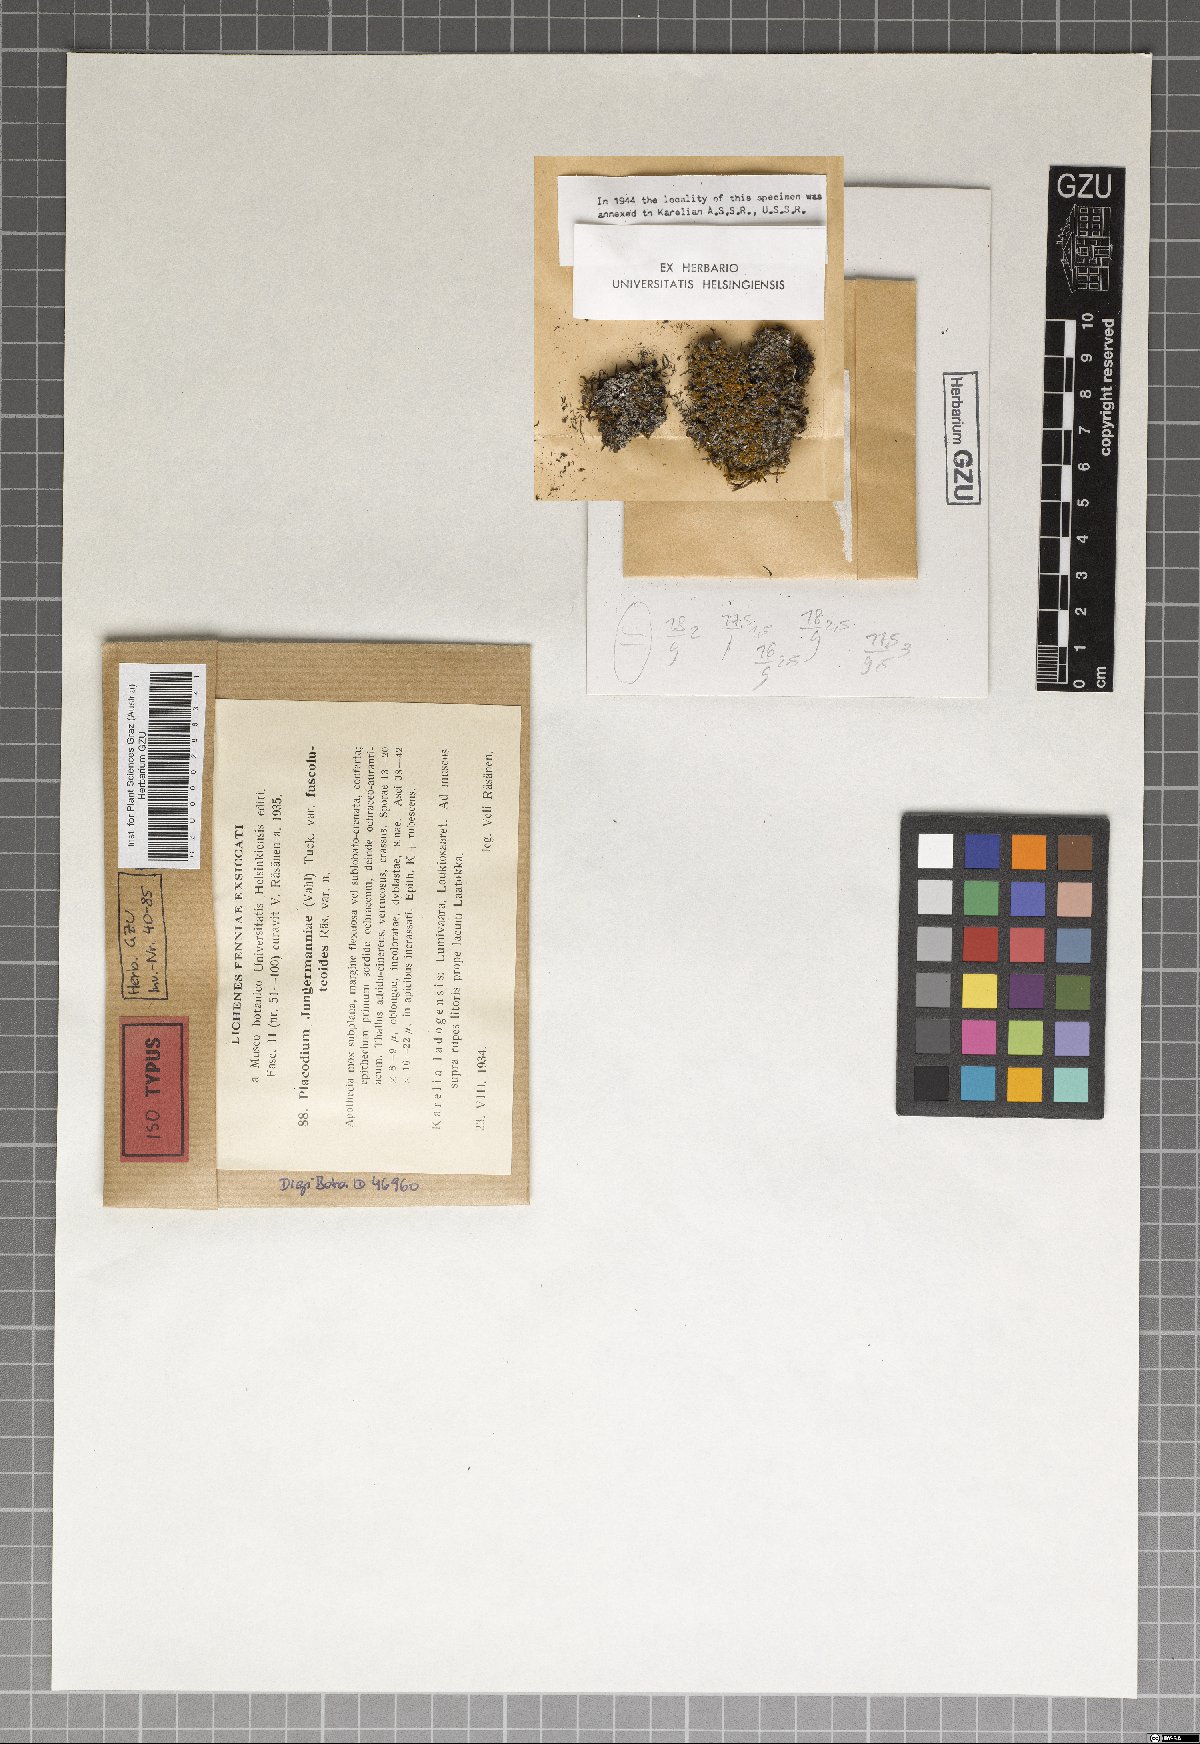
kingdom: Fungi
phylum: Ascomycota
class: Lecanoromycetes
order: Teloschistales
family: Teloschistaceae
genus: Caloplaca
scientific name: Caloplaca fulvolutea
